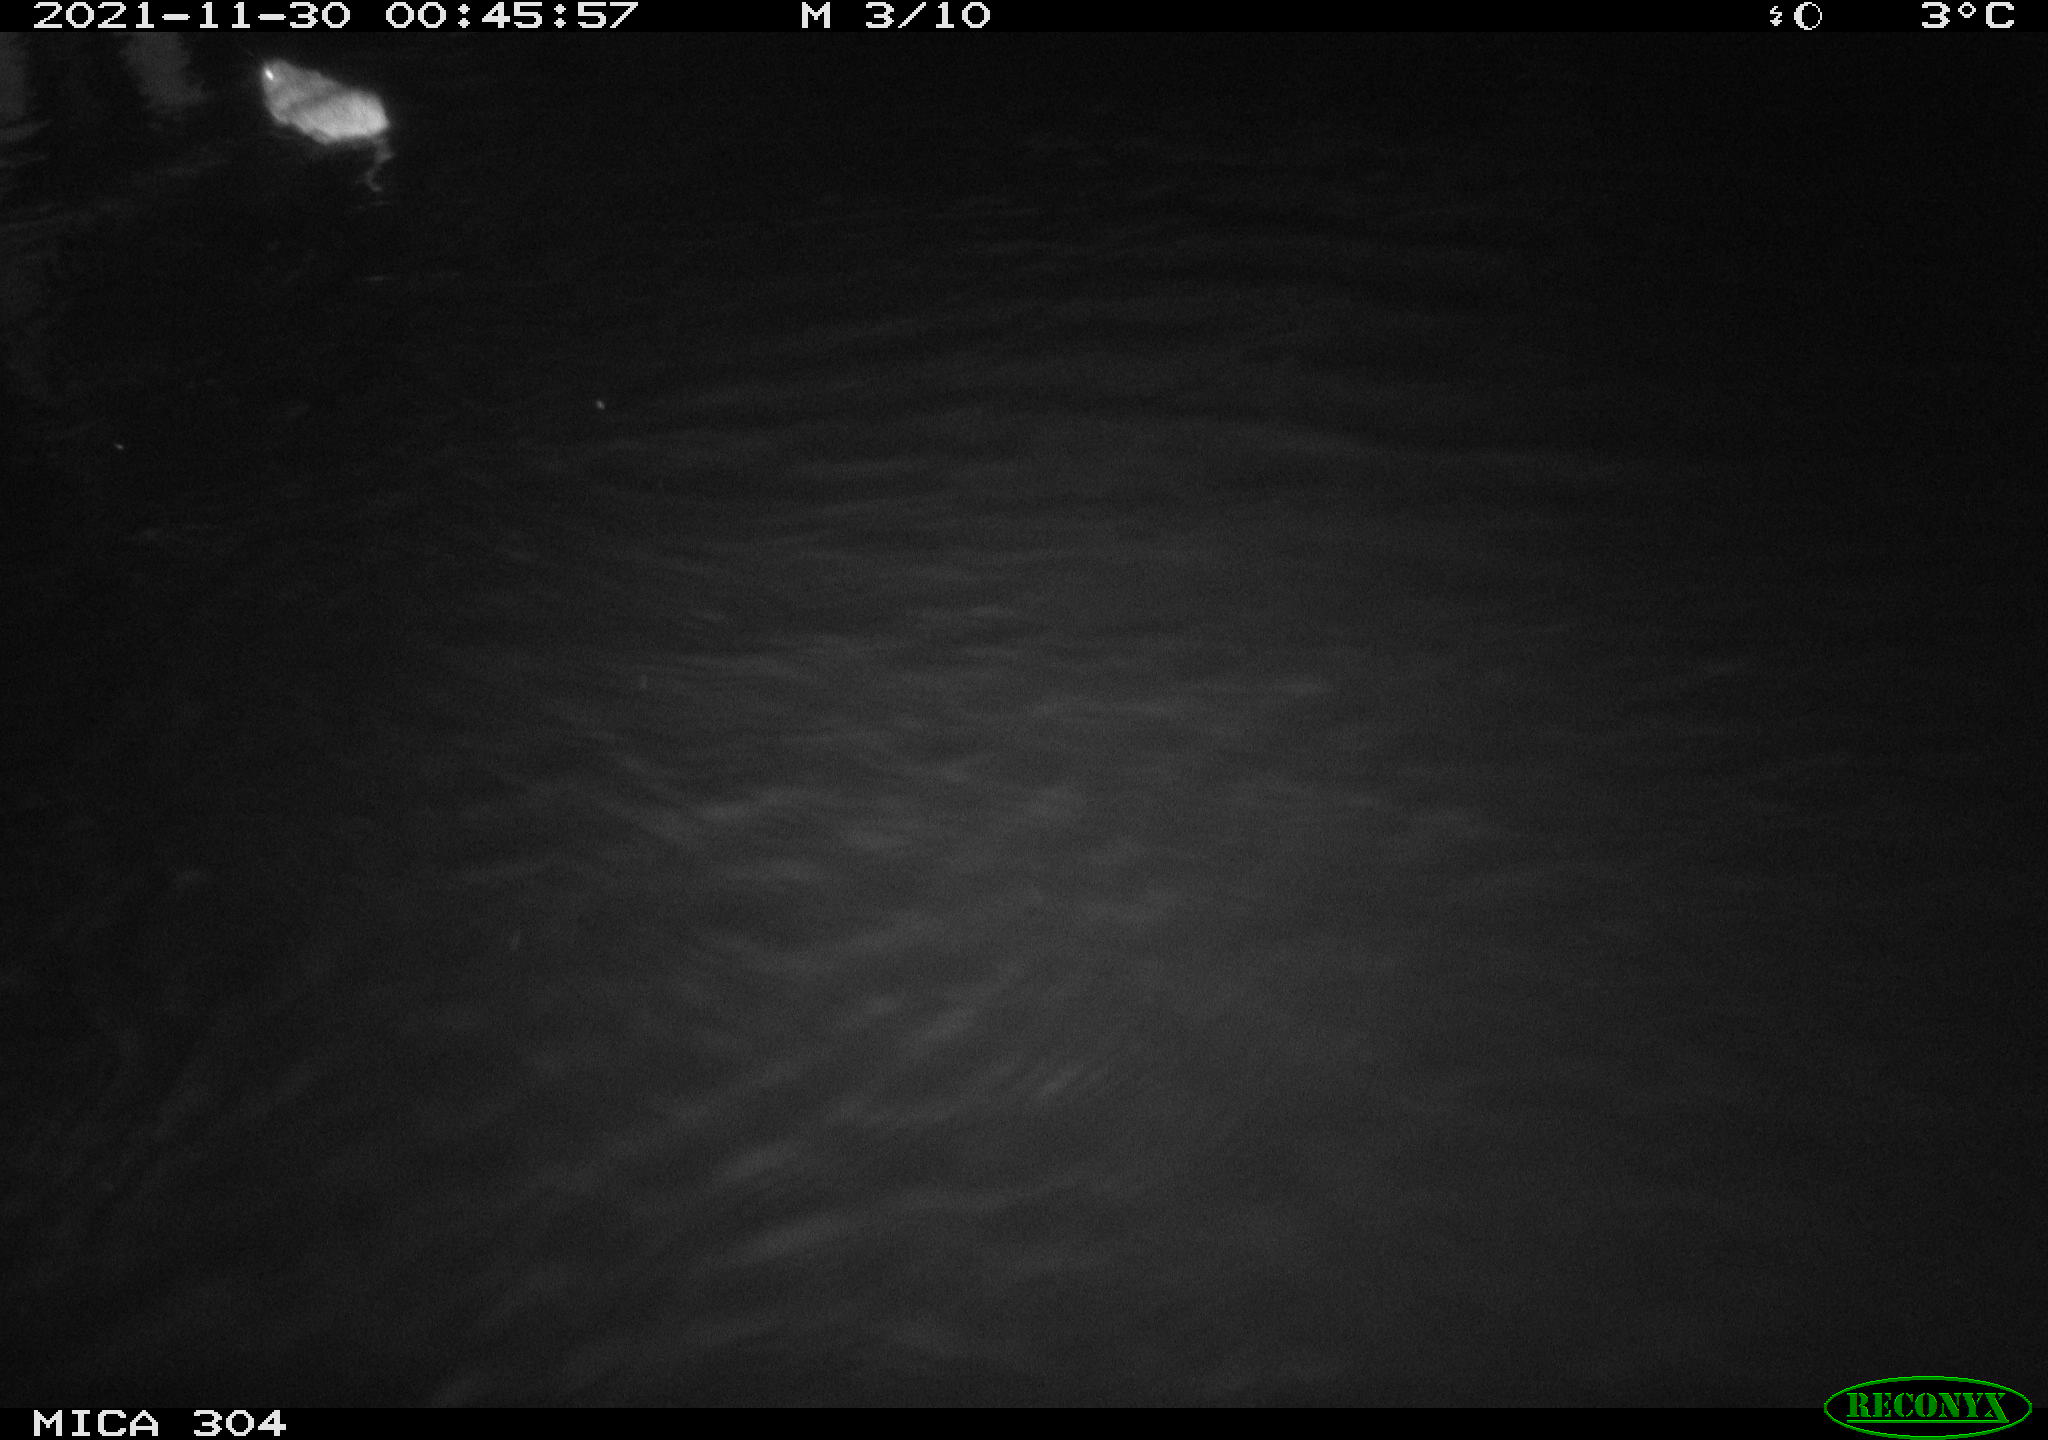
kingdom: Animalia
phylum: Chordata
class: Mammalia
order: Rodentia
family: Muridae
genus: Rattus
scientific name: Rattus norvegicus
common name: Brown rat
